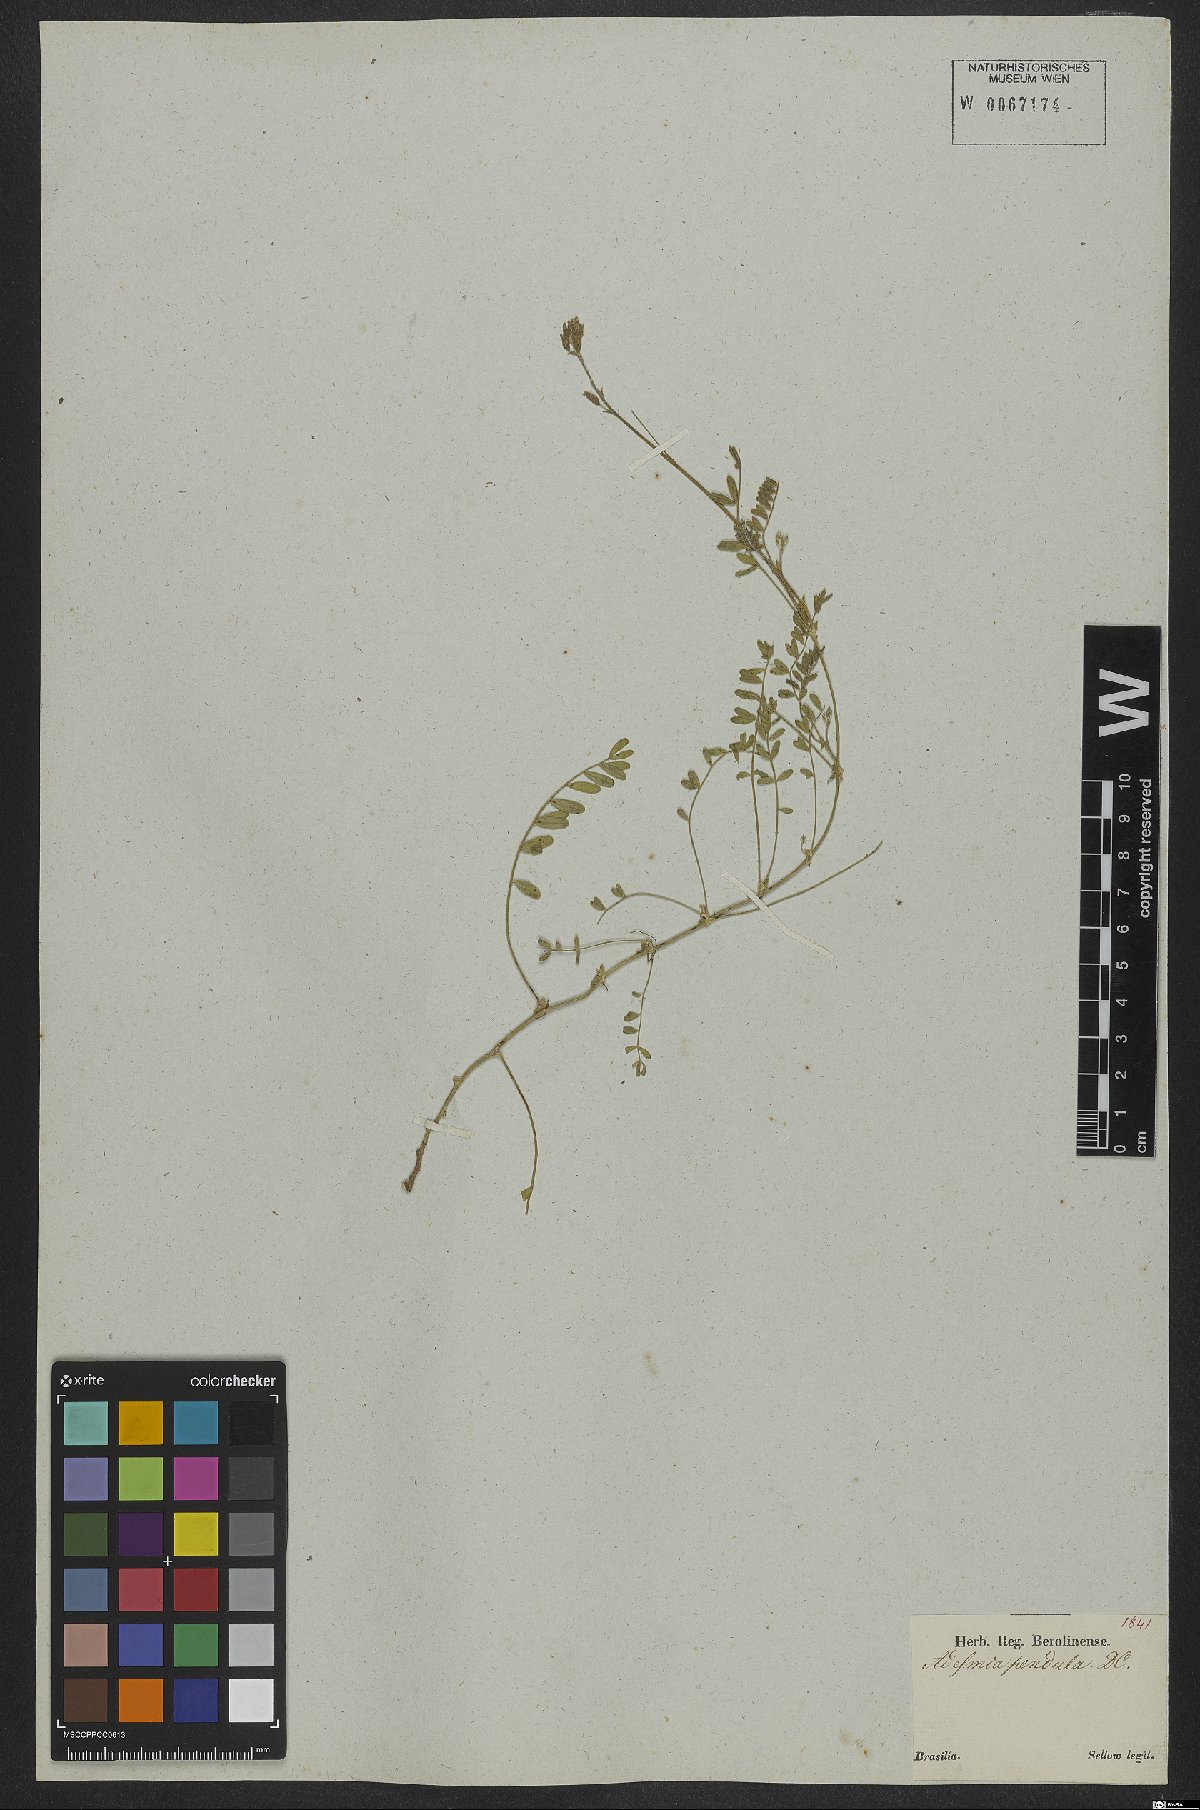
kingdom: Plantae
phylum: Tracheophyta
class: Magnoliopsida
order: Fabales
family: Fabaceae
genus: Adesmia
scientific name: Adesmia bicolora
